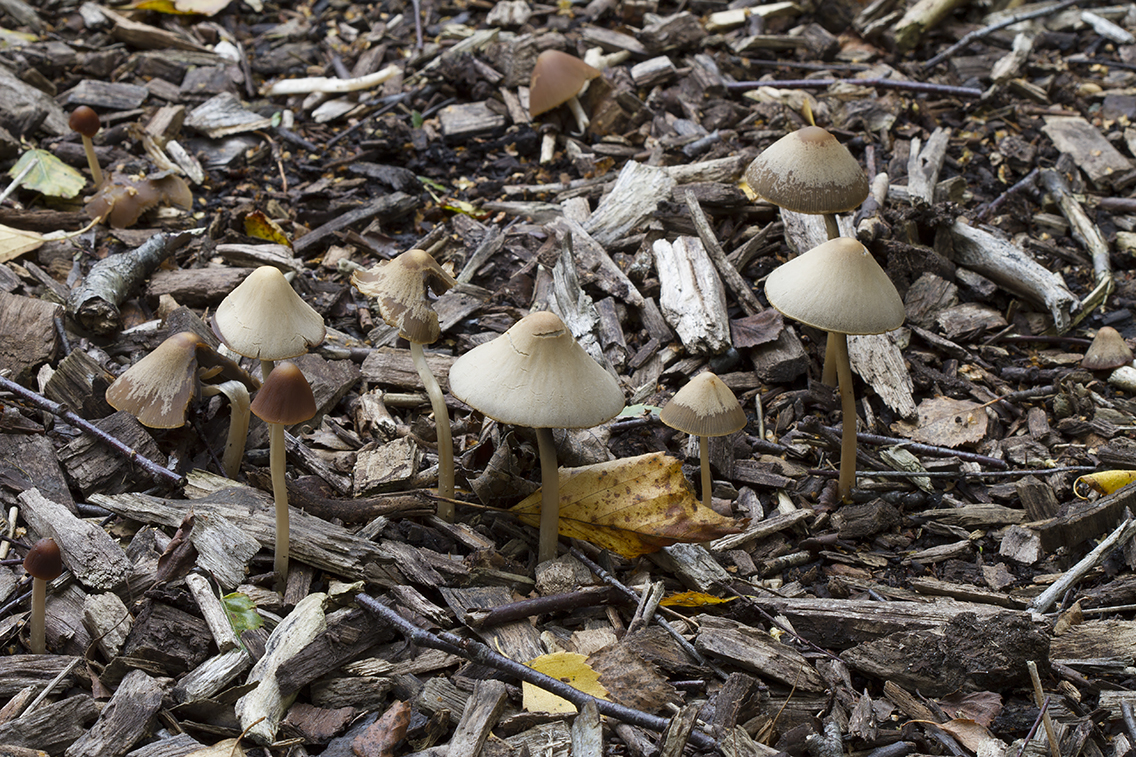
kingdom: Fungi
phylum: Basidiomycota
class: Agaricomycetes
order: Agaricales
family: Psathyrellaceae
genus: Parasola
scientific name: Parasola conopilea
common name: kegle-hjulhat
